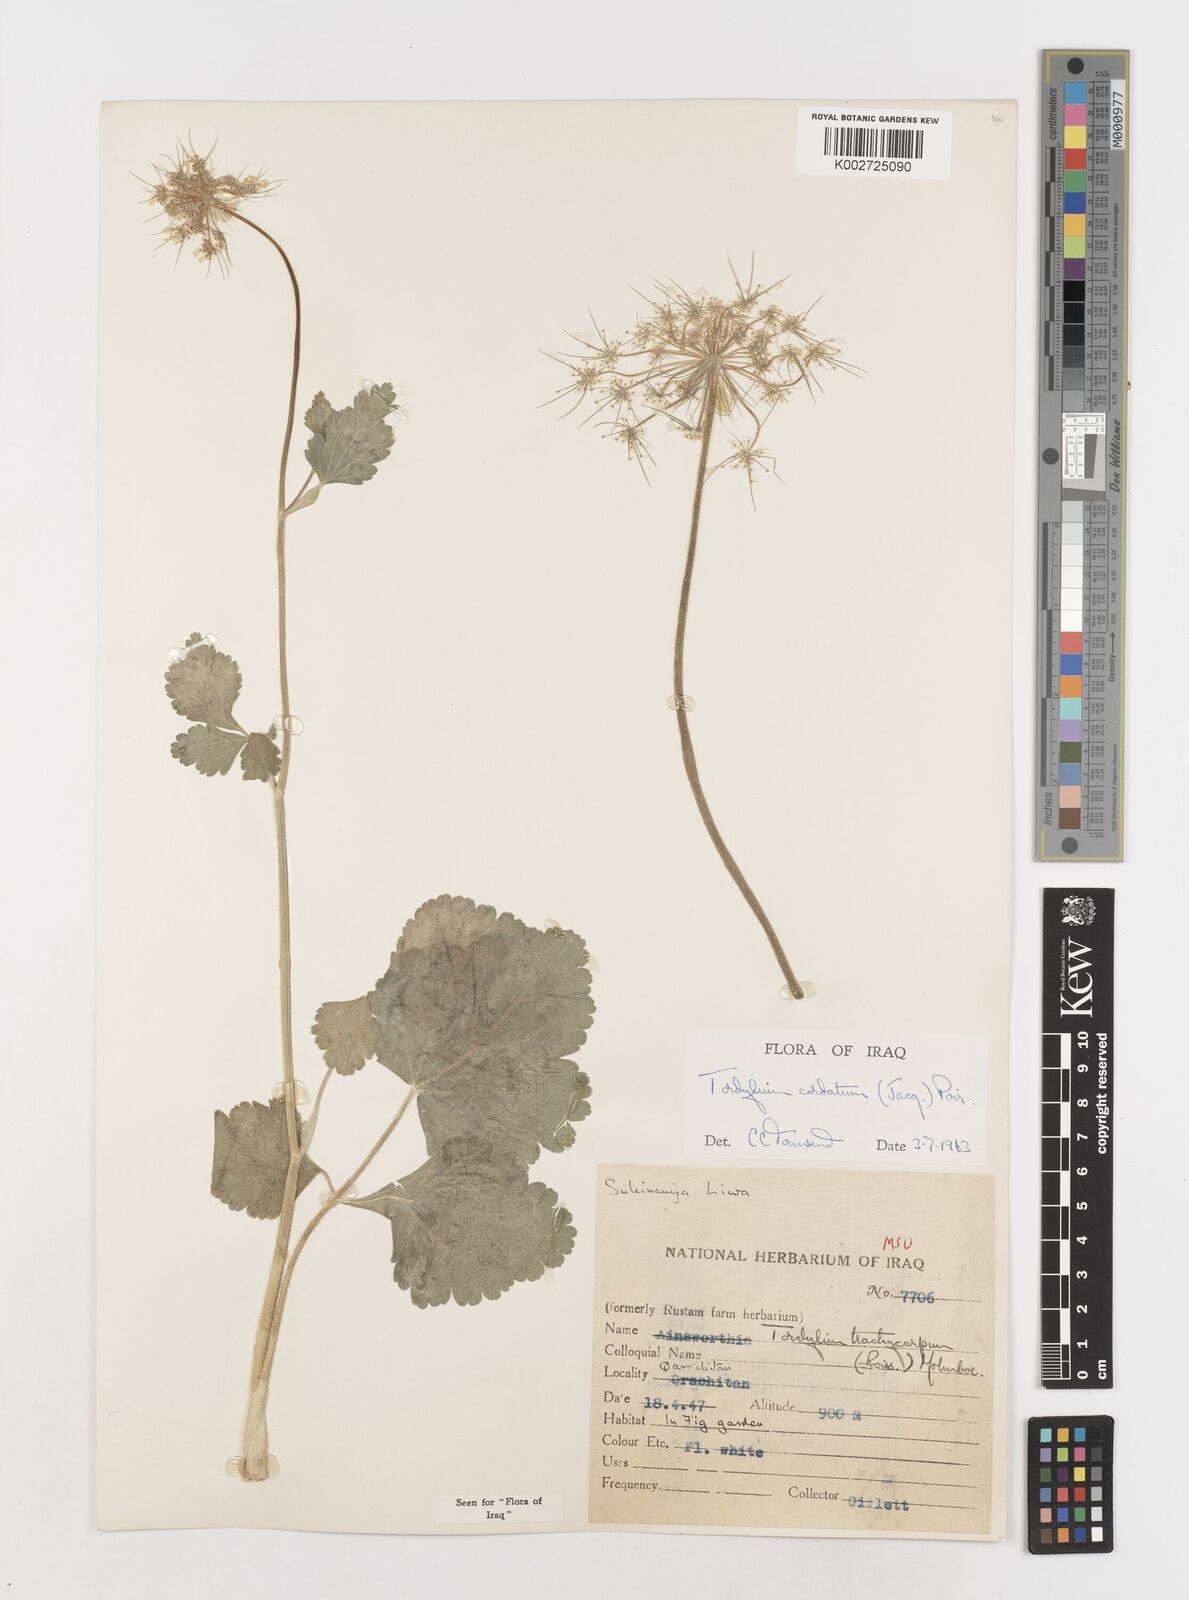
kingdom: Plantae
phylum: Tracheophyta
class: Magnoliopsida
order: Apiales
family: Apiaceae
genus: Ainsworthia
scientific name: Ainsworthia cordata
